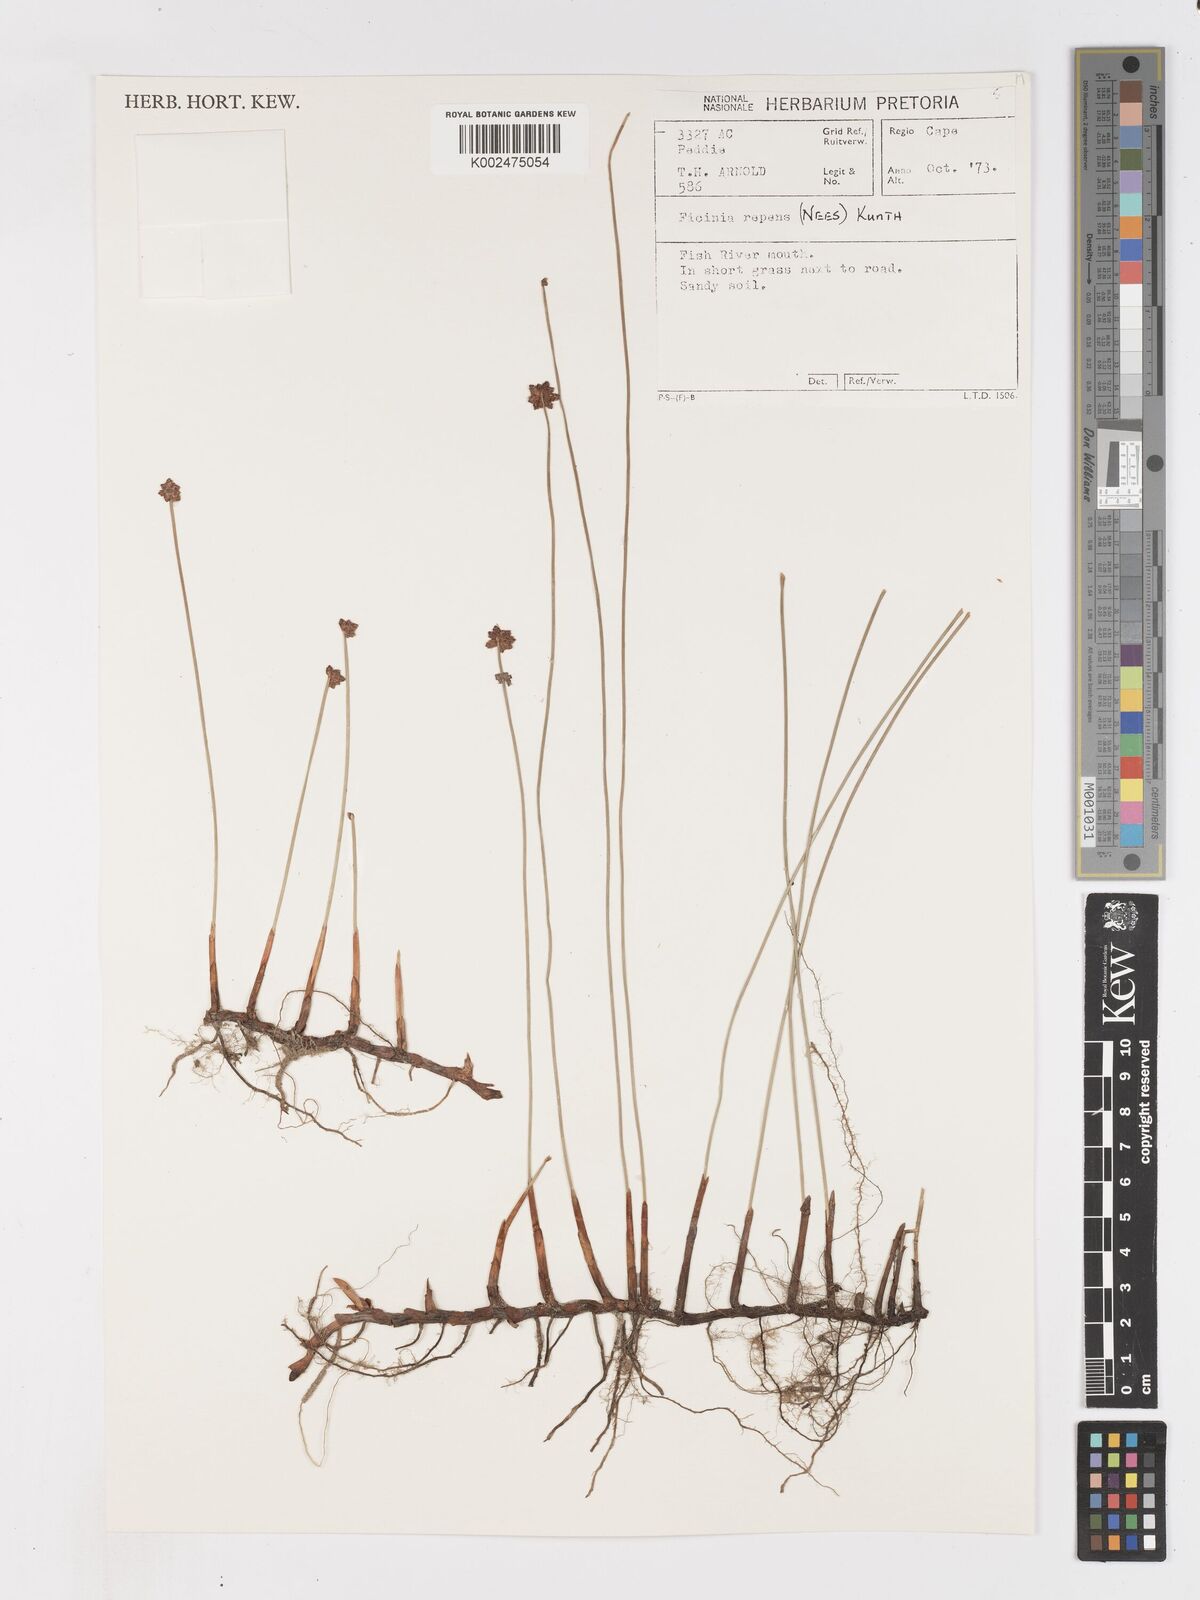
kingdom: Plantae
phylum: Tracheophyta
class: Liliopsida
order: Poales
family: Cyperaceae
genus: Ficinia
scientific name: Ficinia repens
